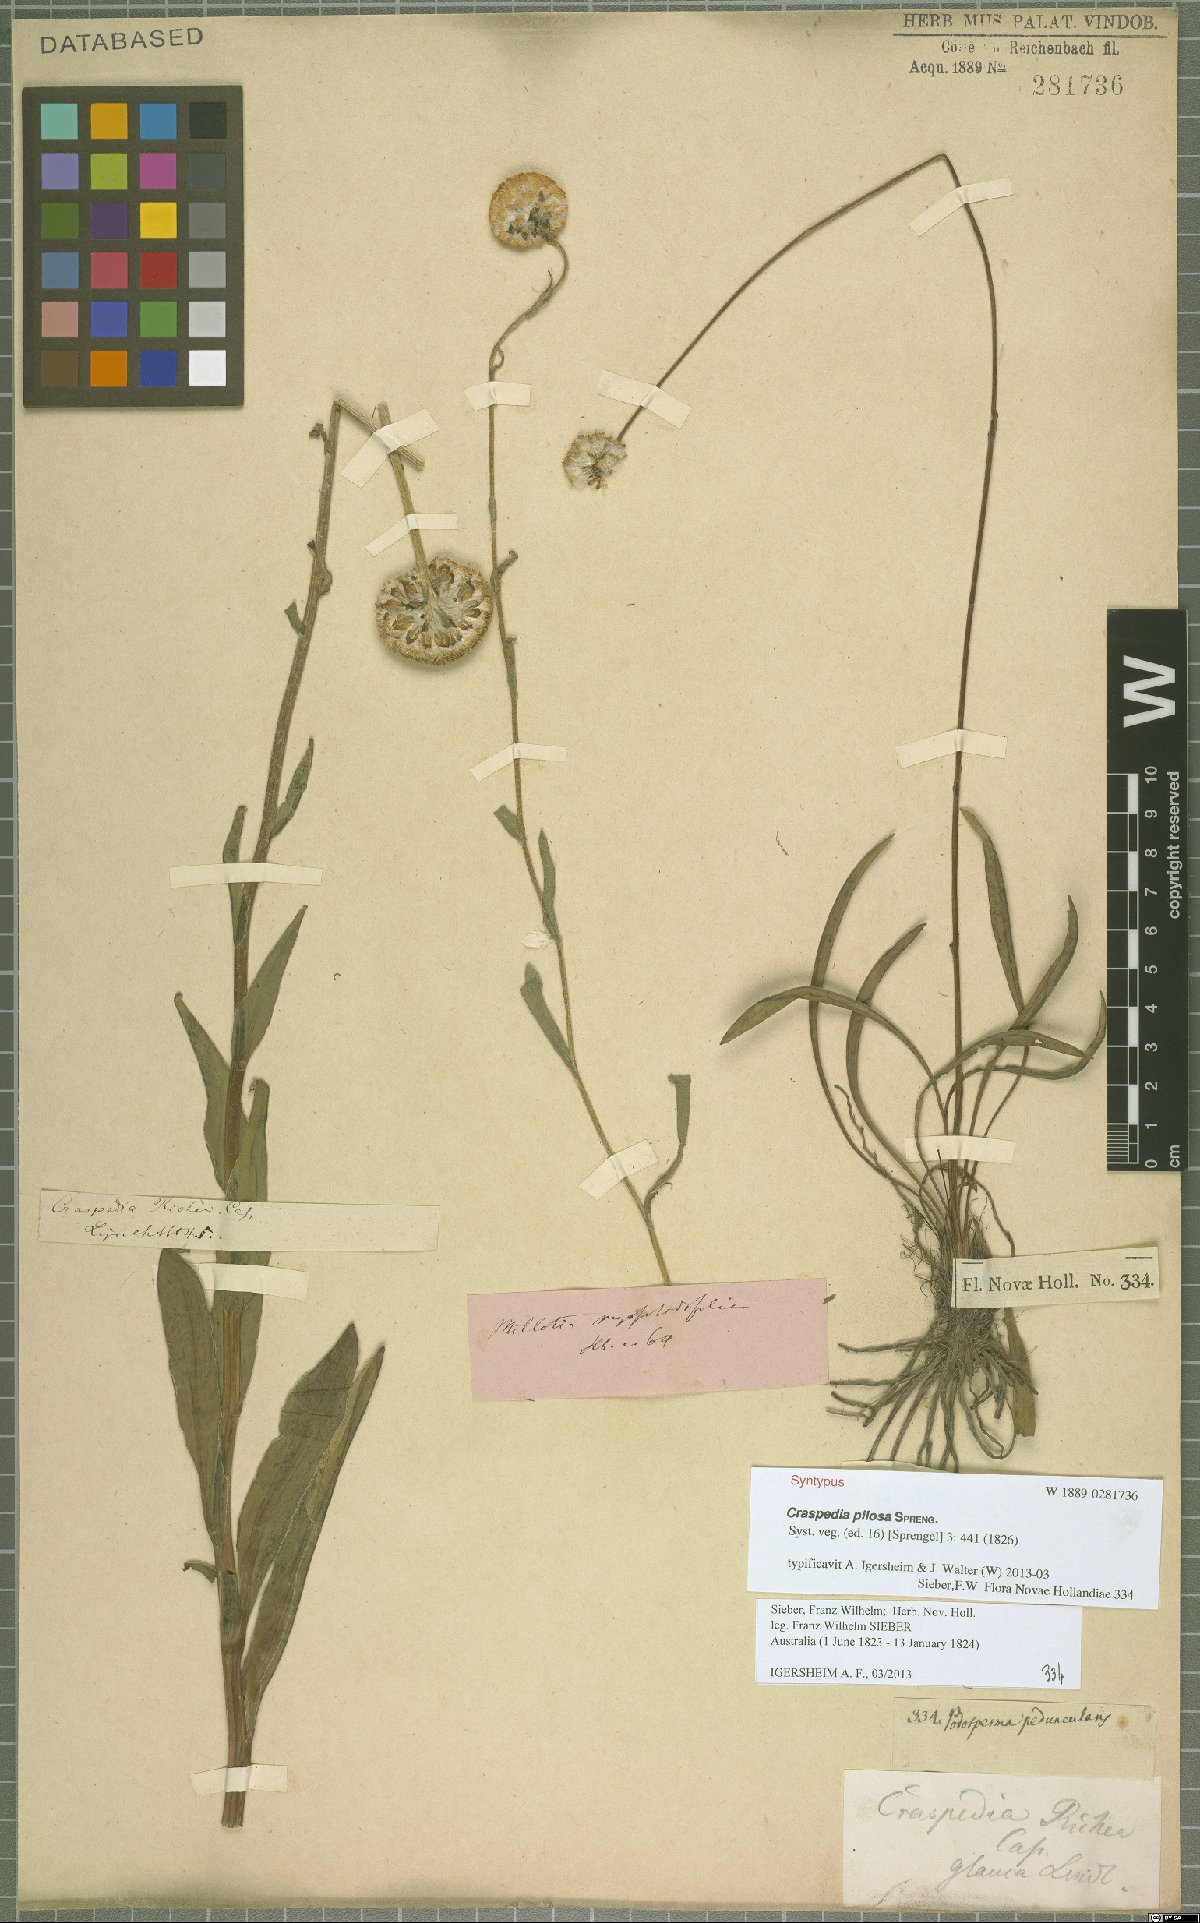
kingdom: Plantae
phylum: Tracheophyta
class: Magnoliopsida
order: Asterales
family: Asteraceae
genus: Craspedia
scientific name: Craspedia pilosa
